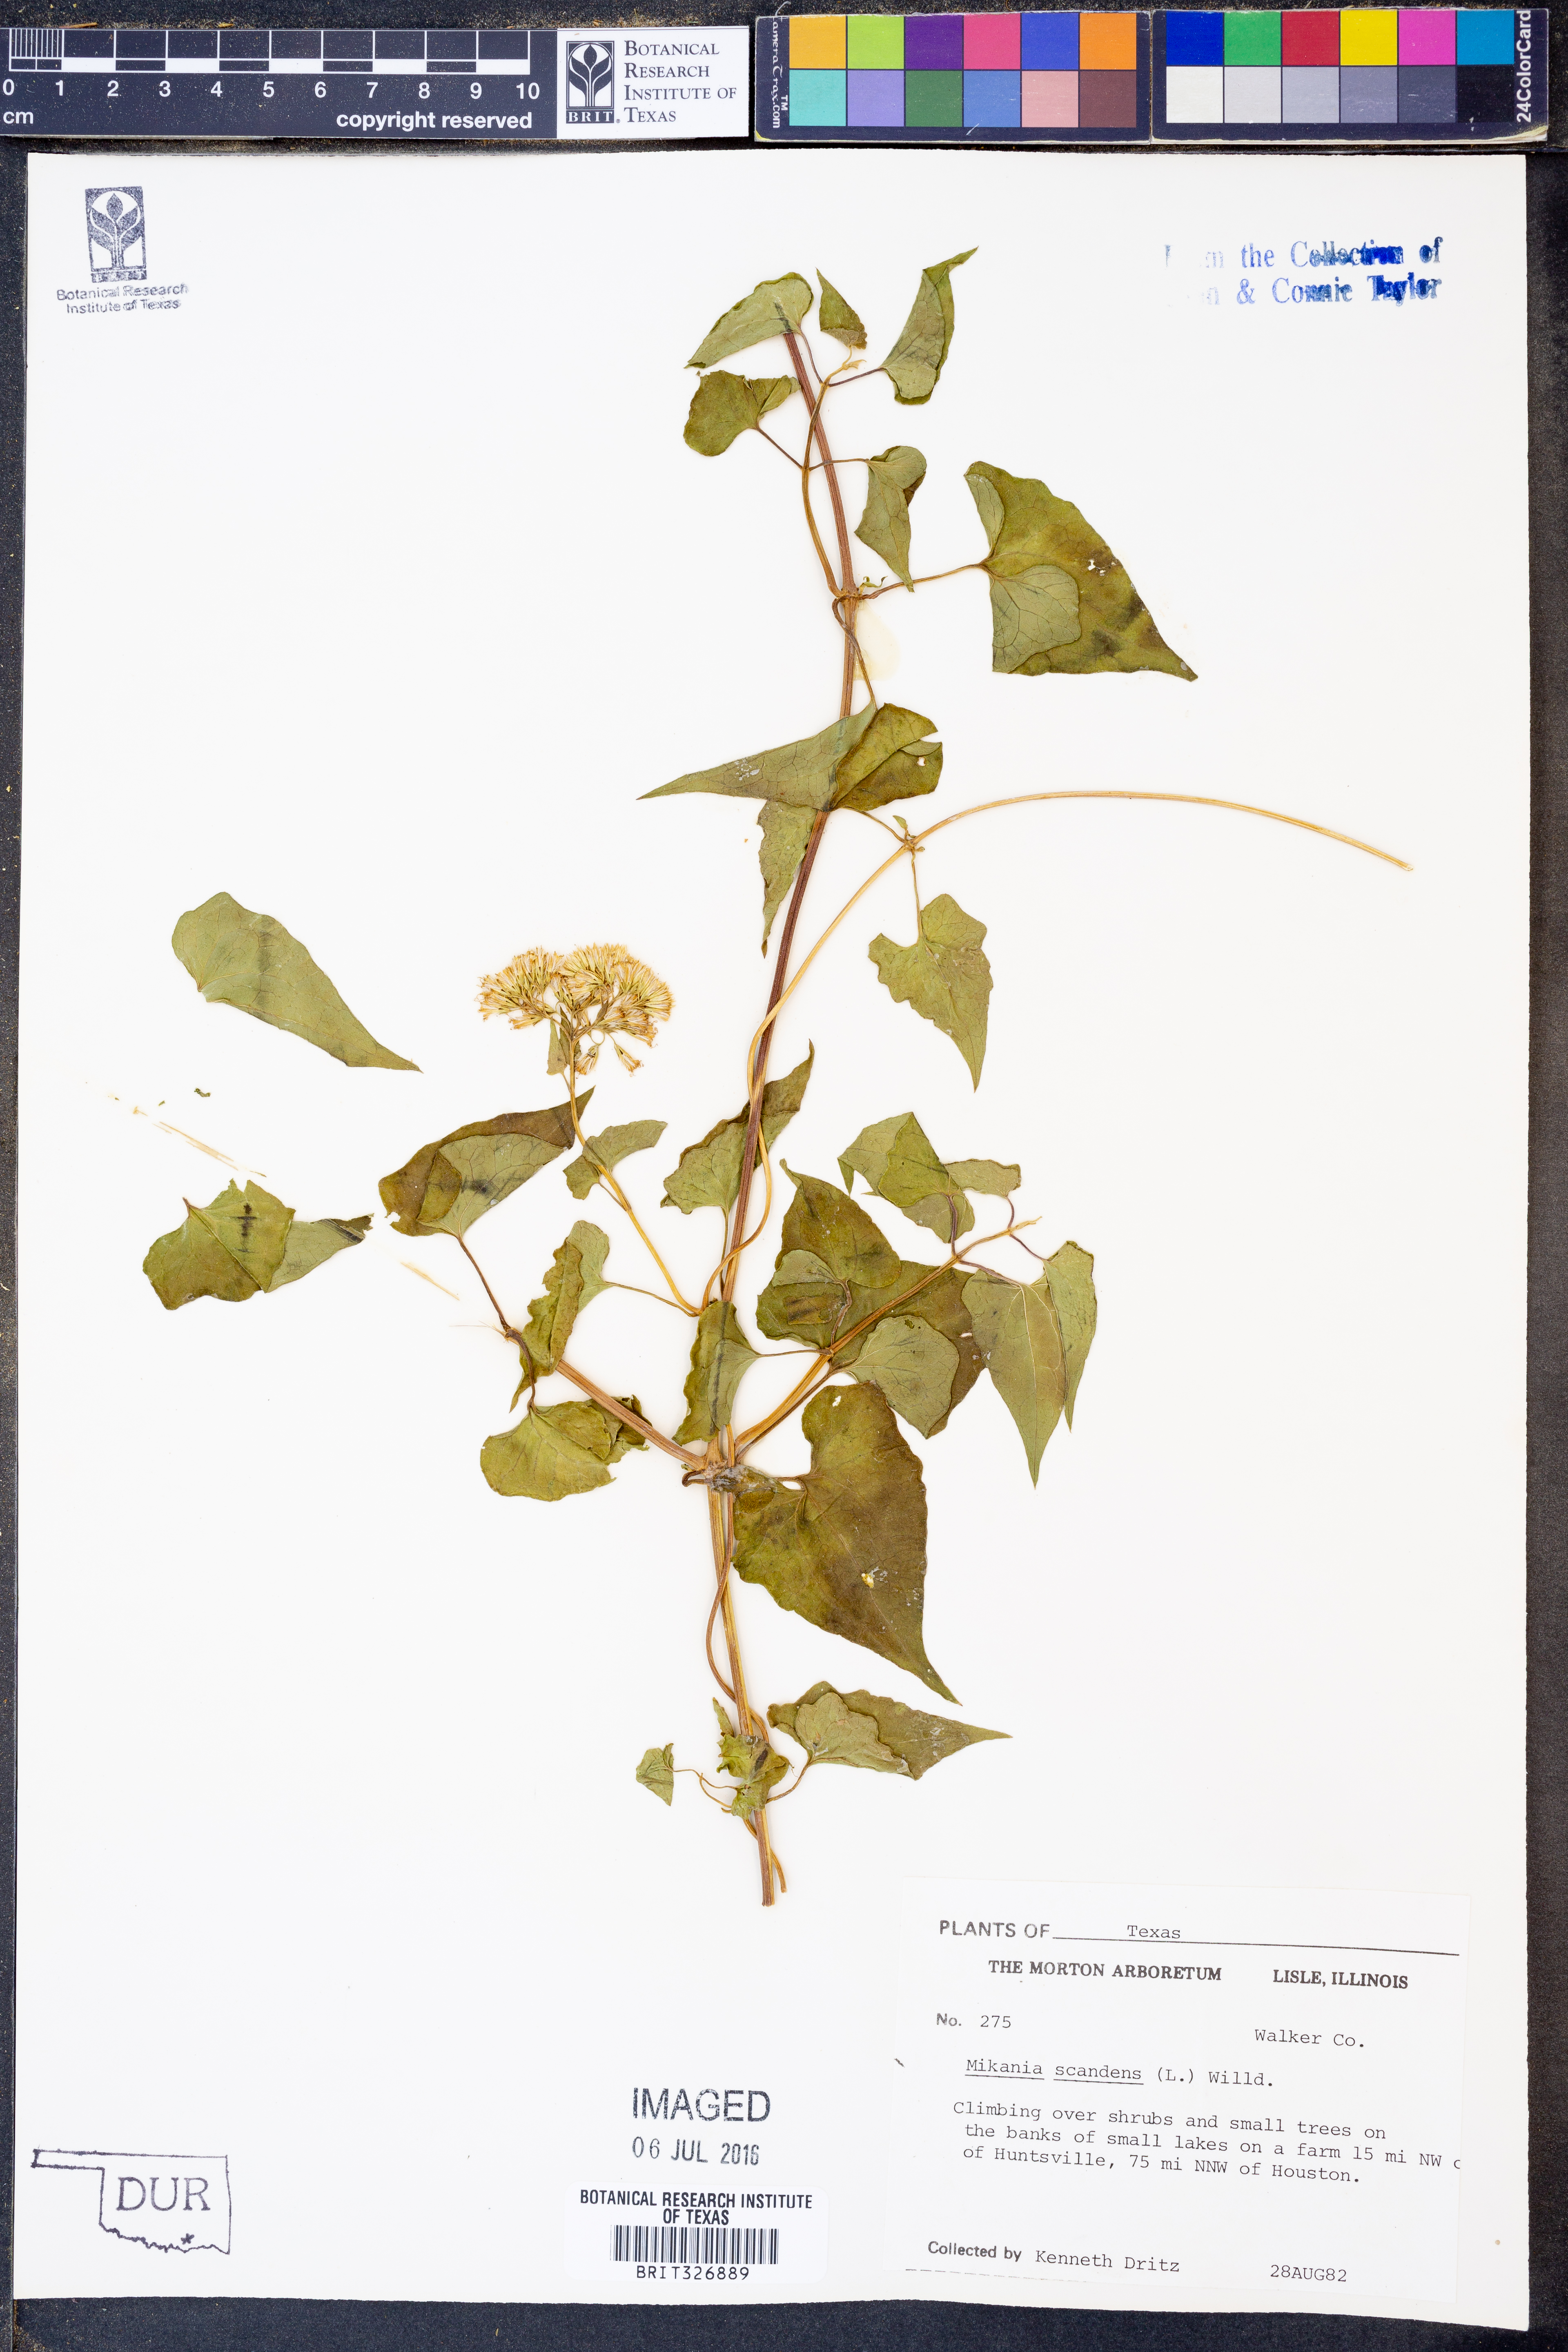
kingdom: Plantae
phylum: Tracheophyta
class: Magnoliopsida
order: Asterales
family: Asteraceae
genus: Mikania
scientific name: Mikania scandens
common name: Climbing hempvine
